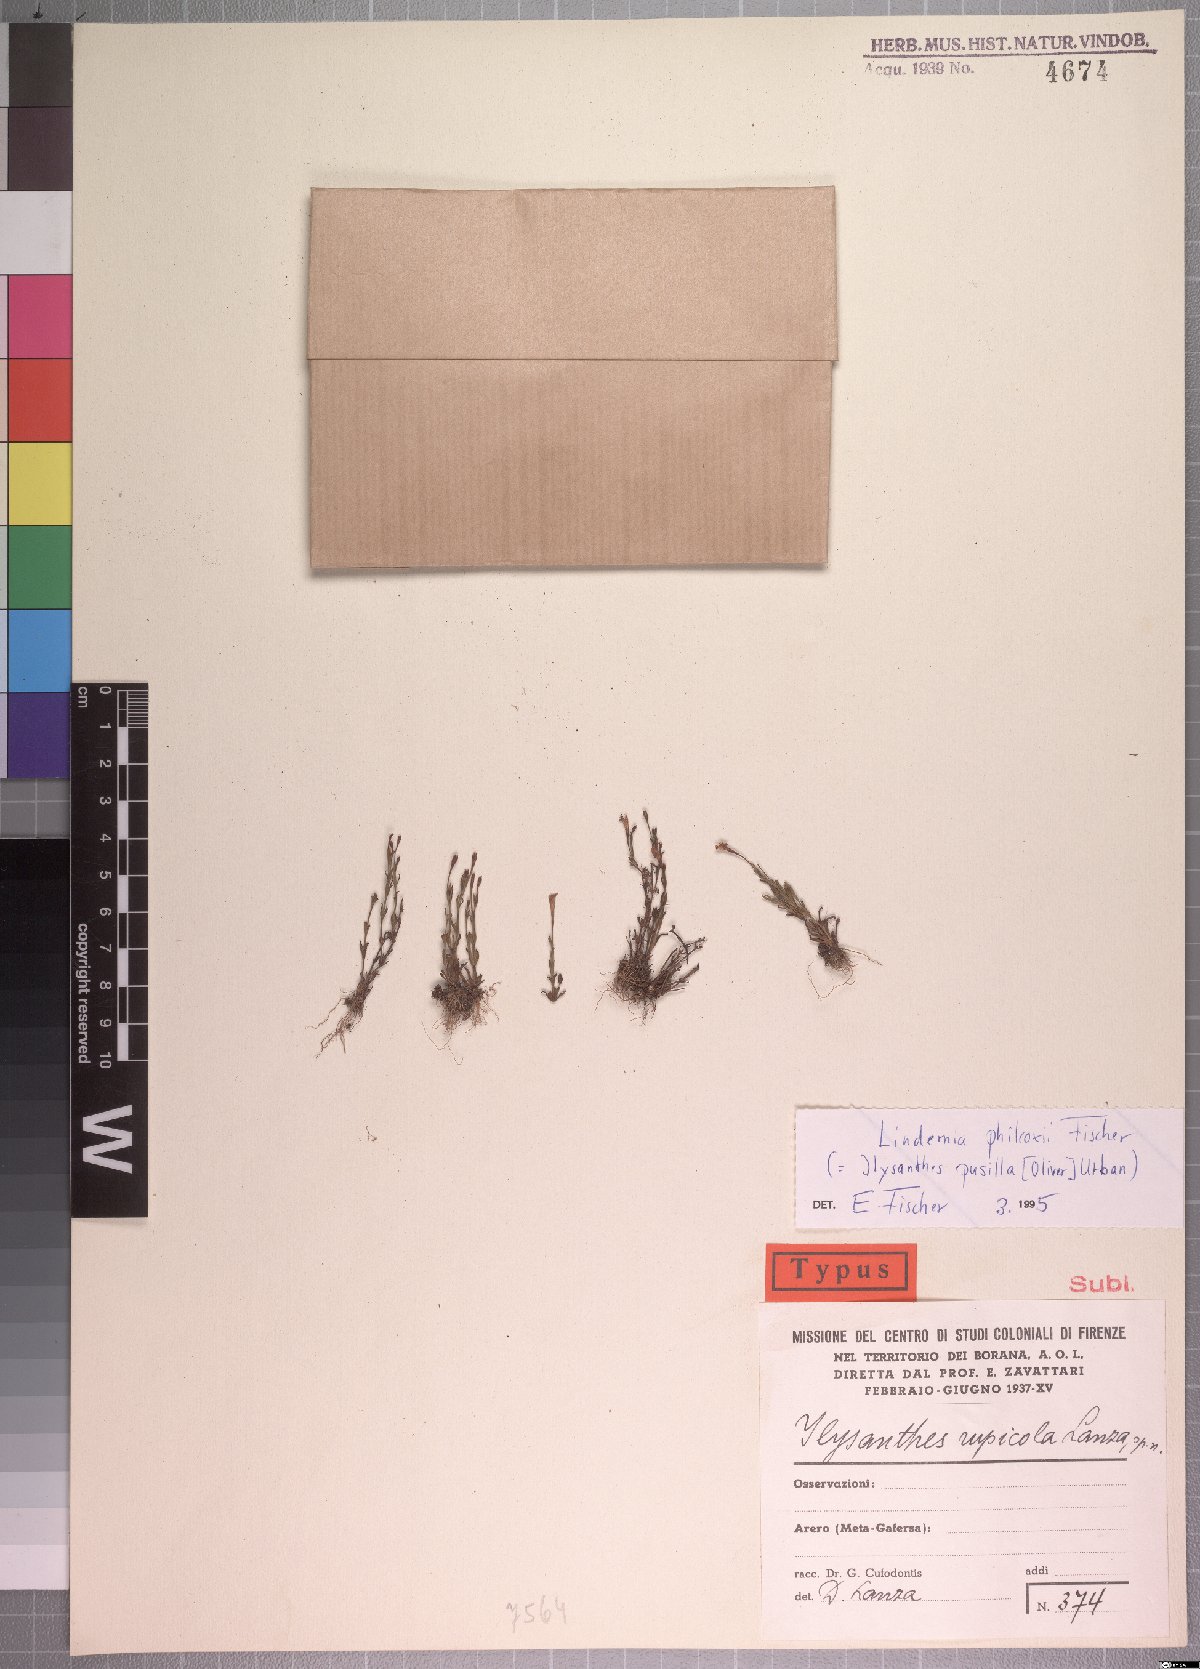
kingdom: Plantae
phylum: Tracheophyta
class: Magnoliopsida
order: Lamiales
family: Linderniaceae
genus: Linderniella
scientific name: Linderniella ugandensis
